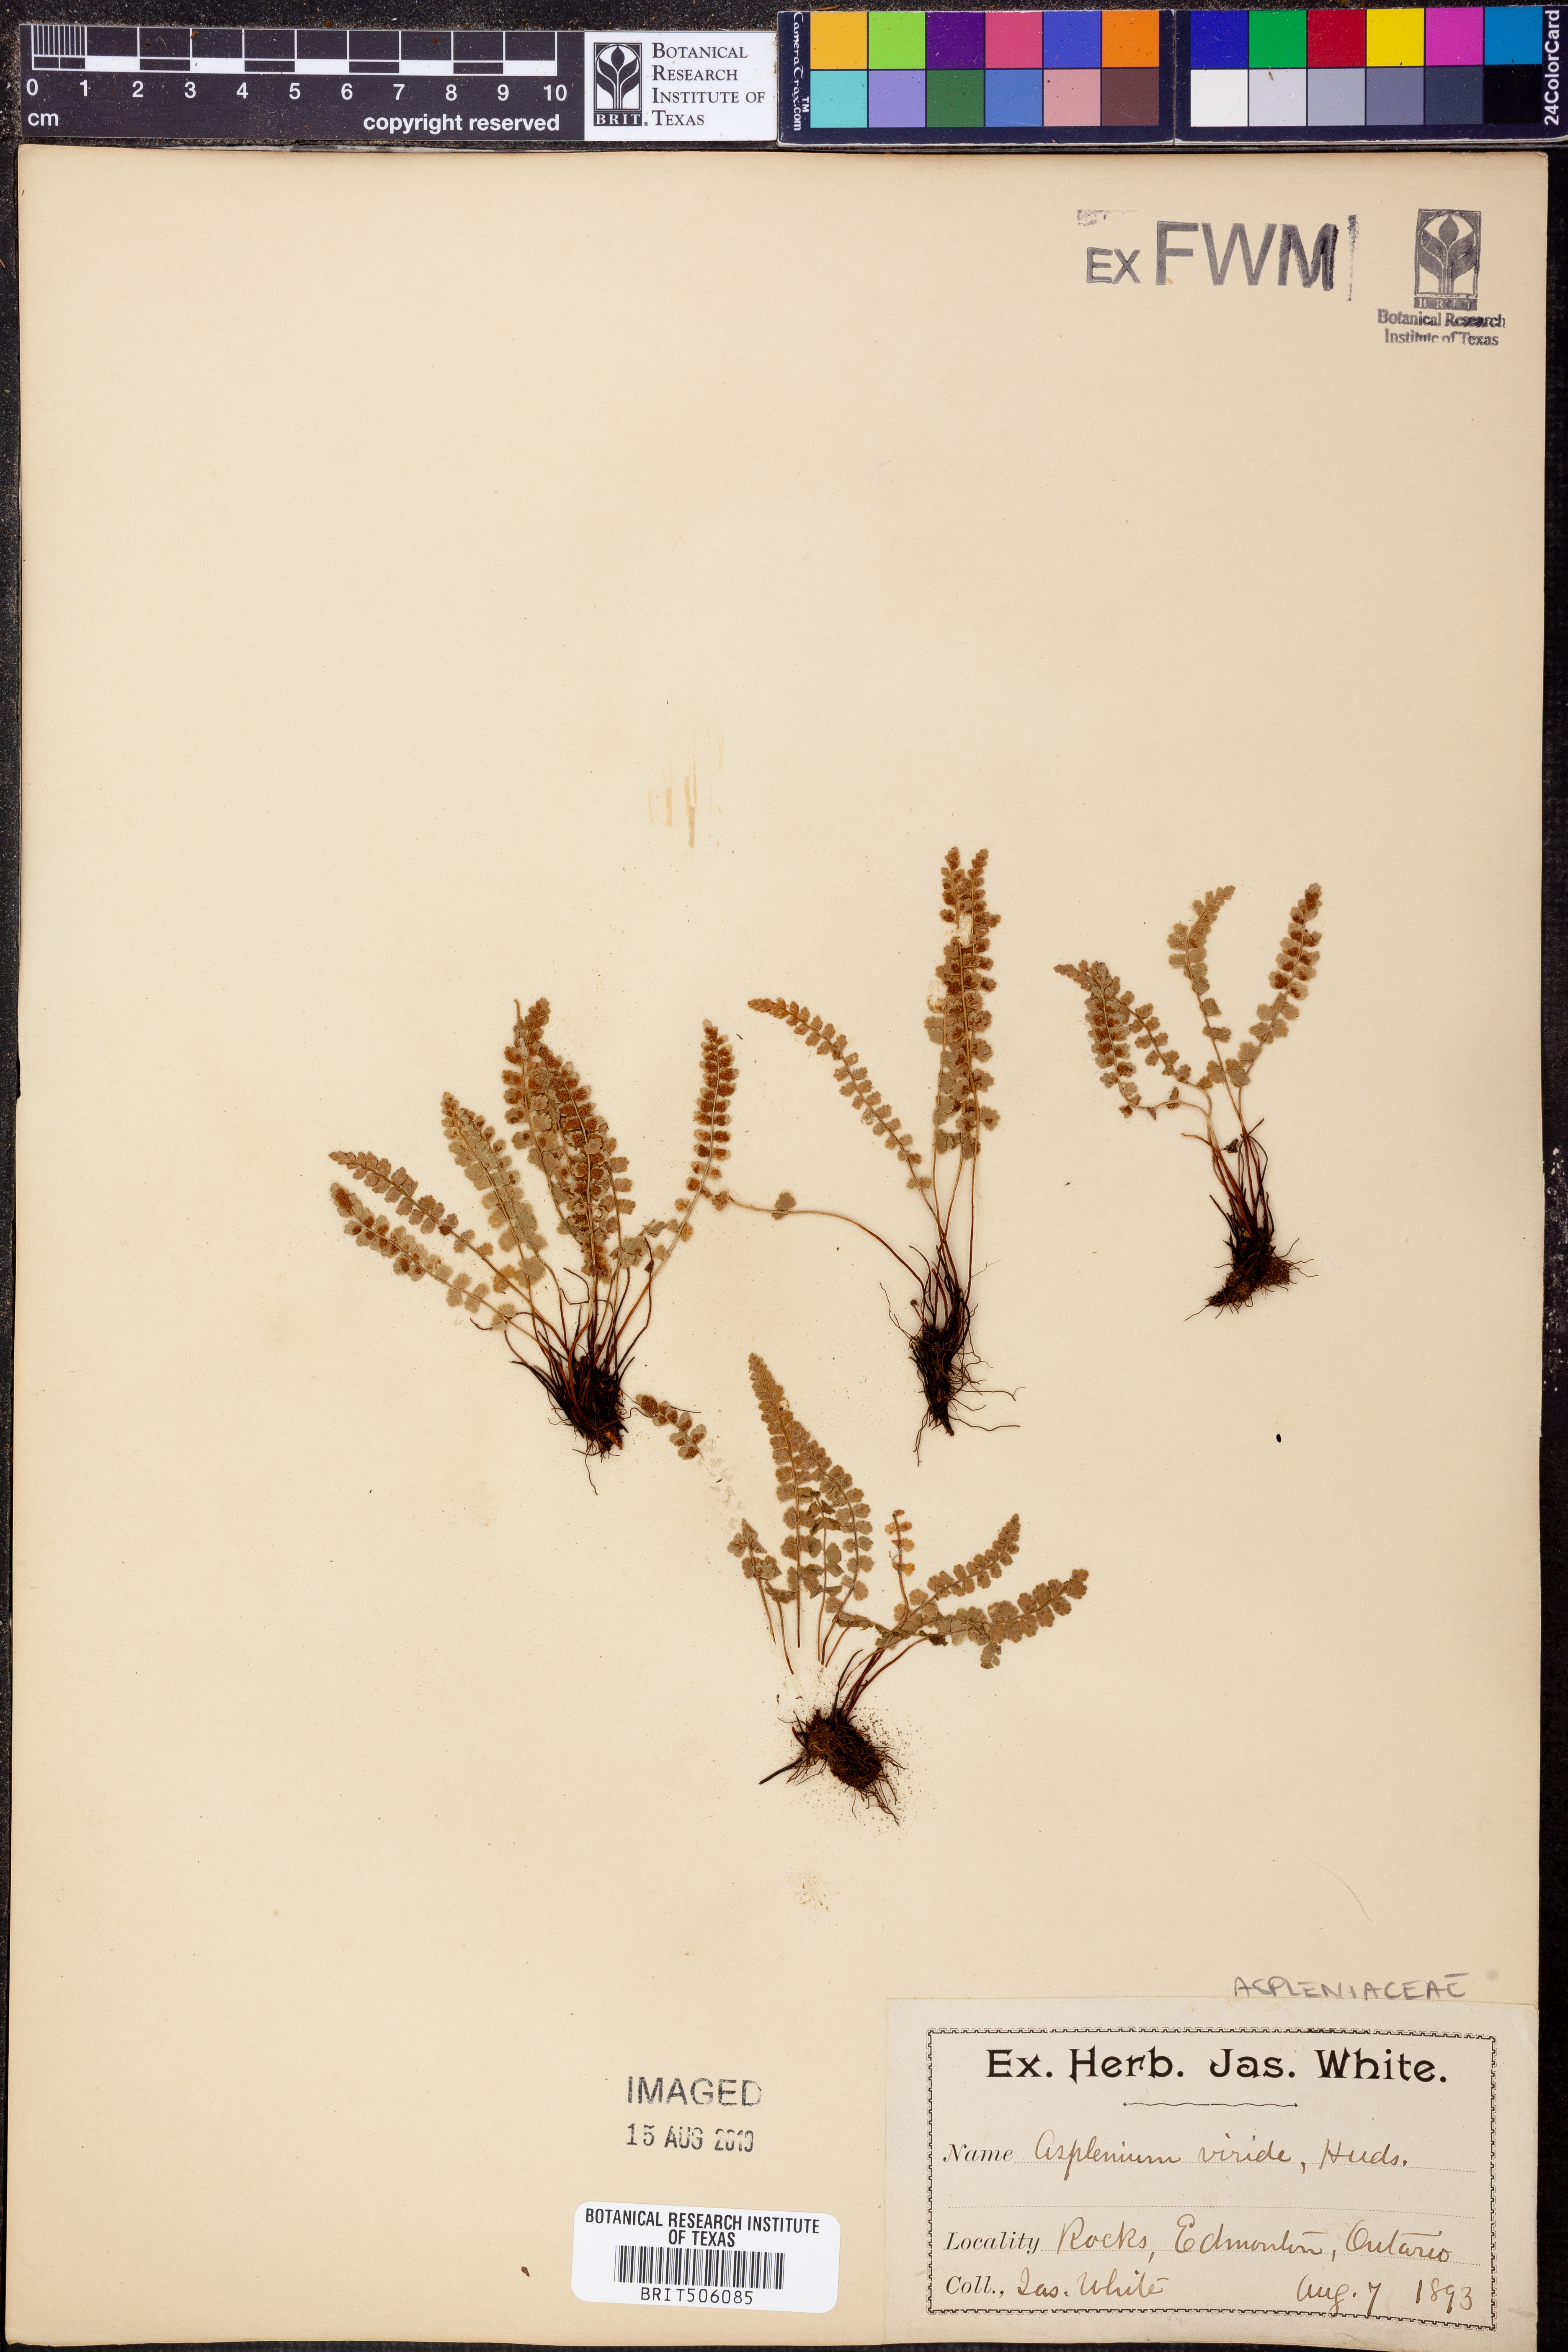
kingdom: Plantae
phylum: Tracheophyta
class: Polypodiopsida
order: Polypodiales
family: Aspleniaceae
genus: Asplenium
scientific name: Asplenium viride
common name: Green spleenwort
